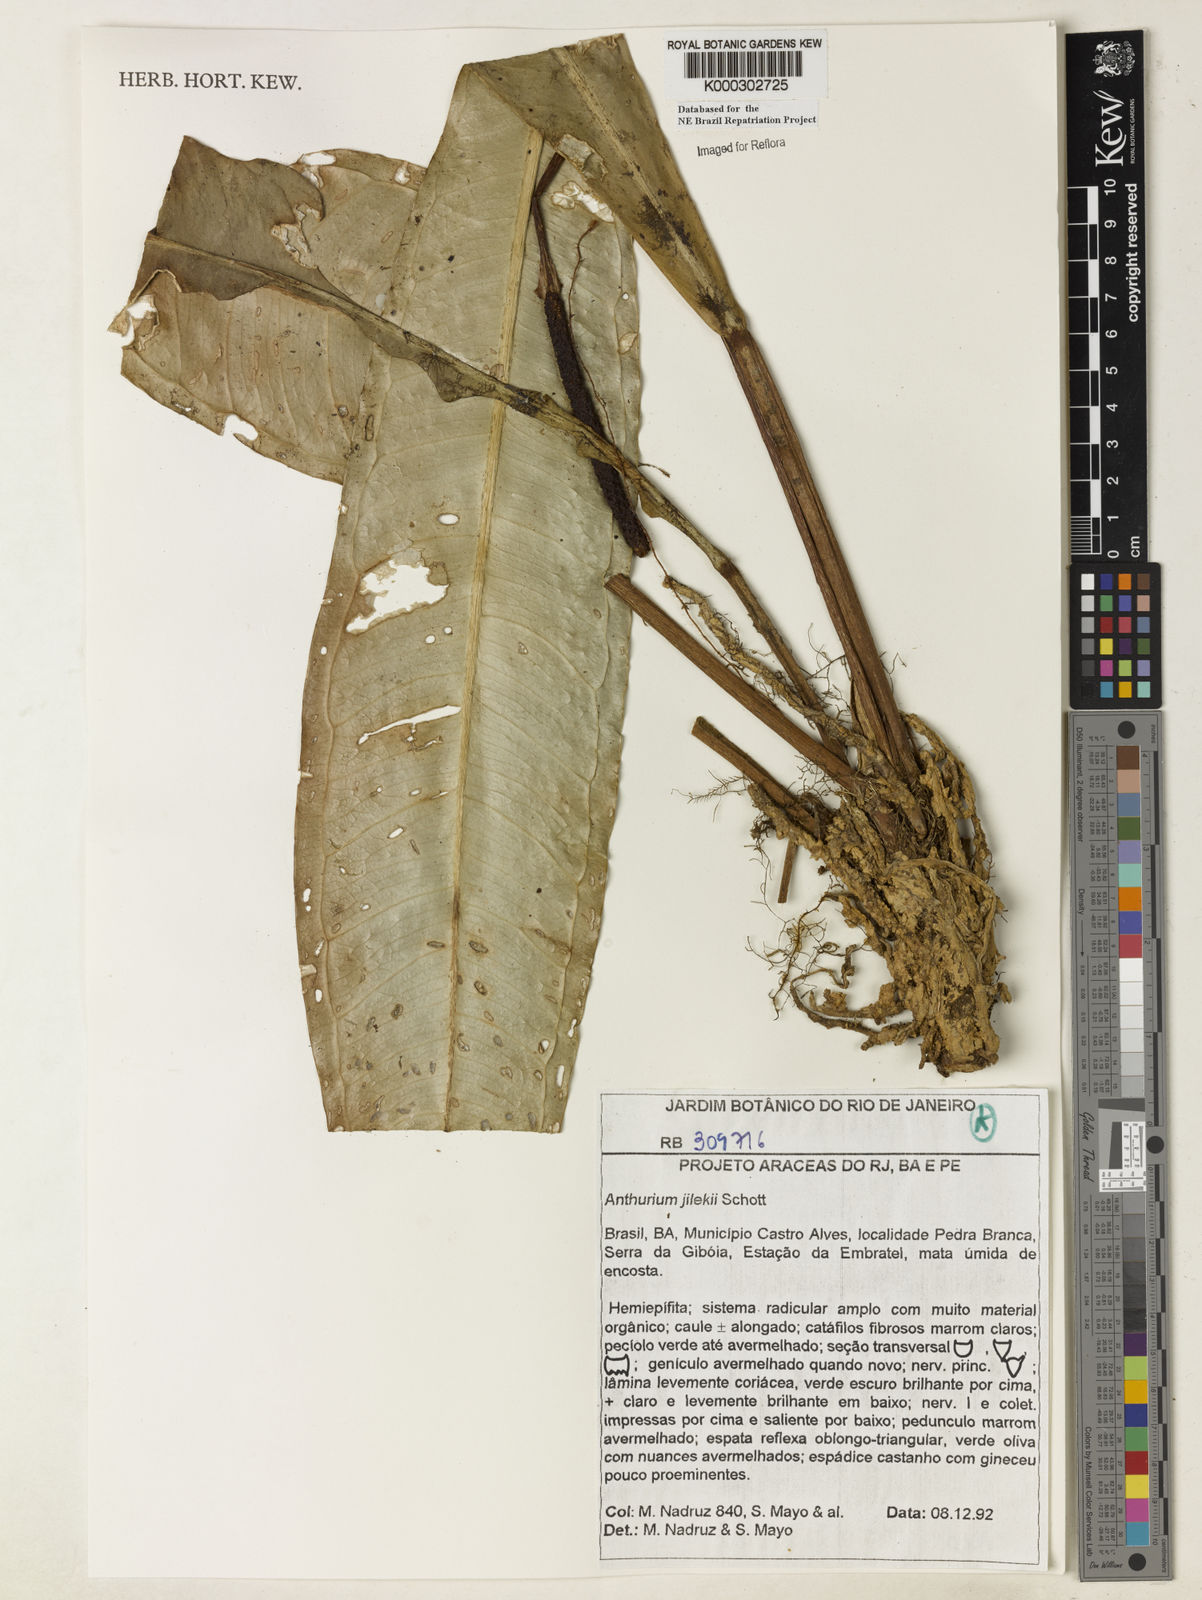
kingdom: Plantae
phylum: Tracheophyta
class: Liliopsida
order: Alismatales
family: Araceae
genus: Anthurium
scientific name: Anthurium jilekii
